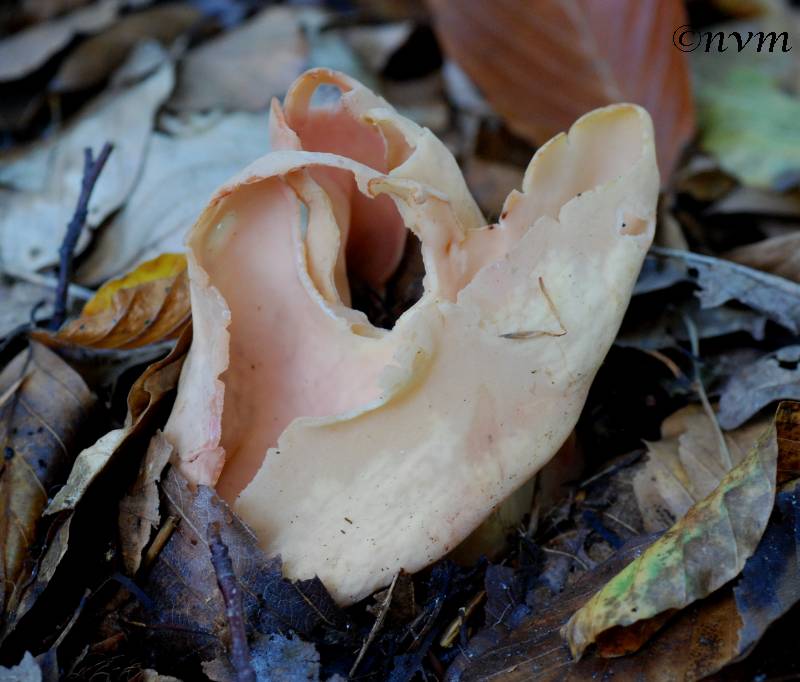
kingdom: Fungi
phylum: Ascomycota
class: Pezizomycetes
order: Pezizales
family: Otideaceae
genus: Otidea
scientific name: Otidea onotica
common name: æsel-ørebæger
